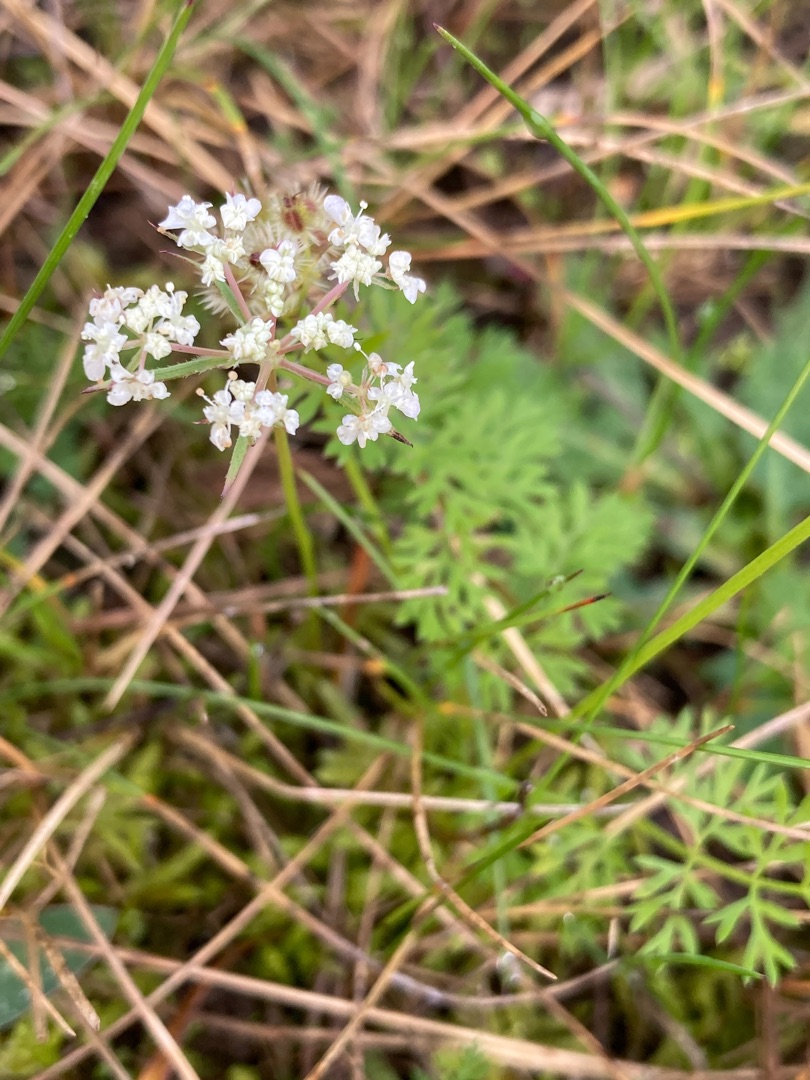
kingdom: Plantae
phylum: Tracheophyta
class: Magnoliopsida
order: Apiales
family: Apiaceae
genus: Daucus
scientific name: Daucus carota
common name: Gulerod
